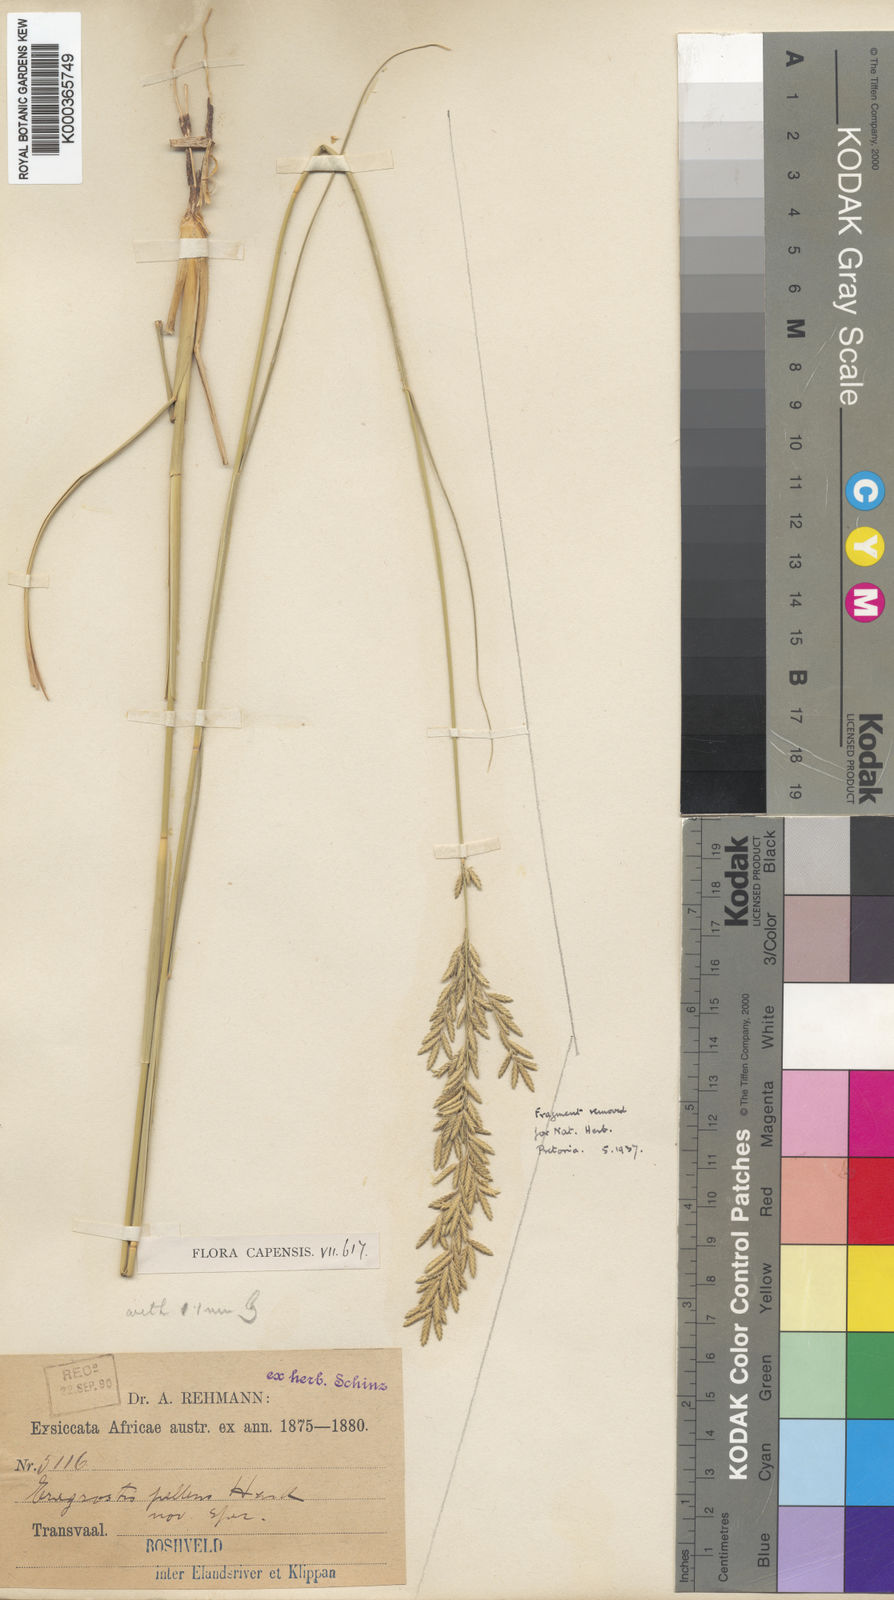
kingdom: Plantae
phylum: Tracheophyta
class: Liliopsida
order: Poales
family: Poaceae
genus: Eragrostis
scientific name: Eragrostis
